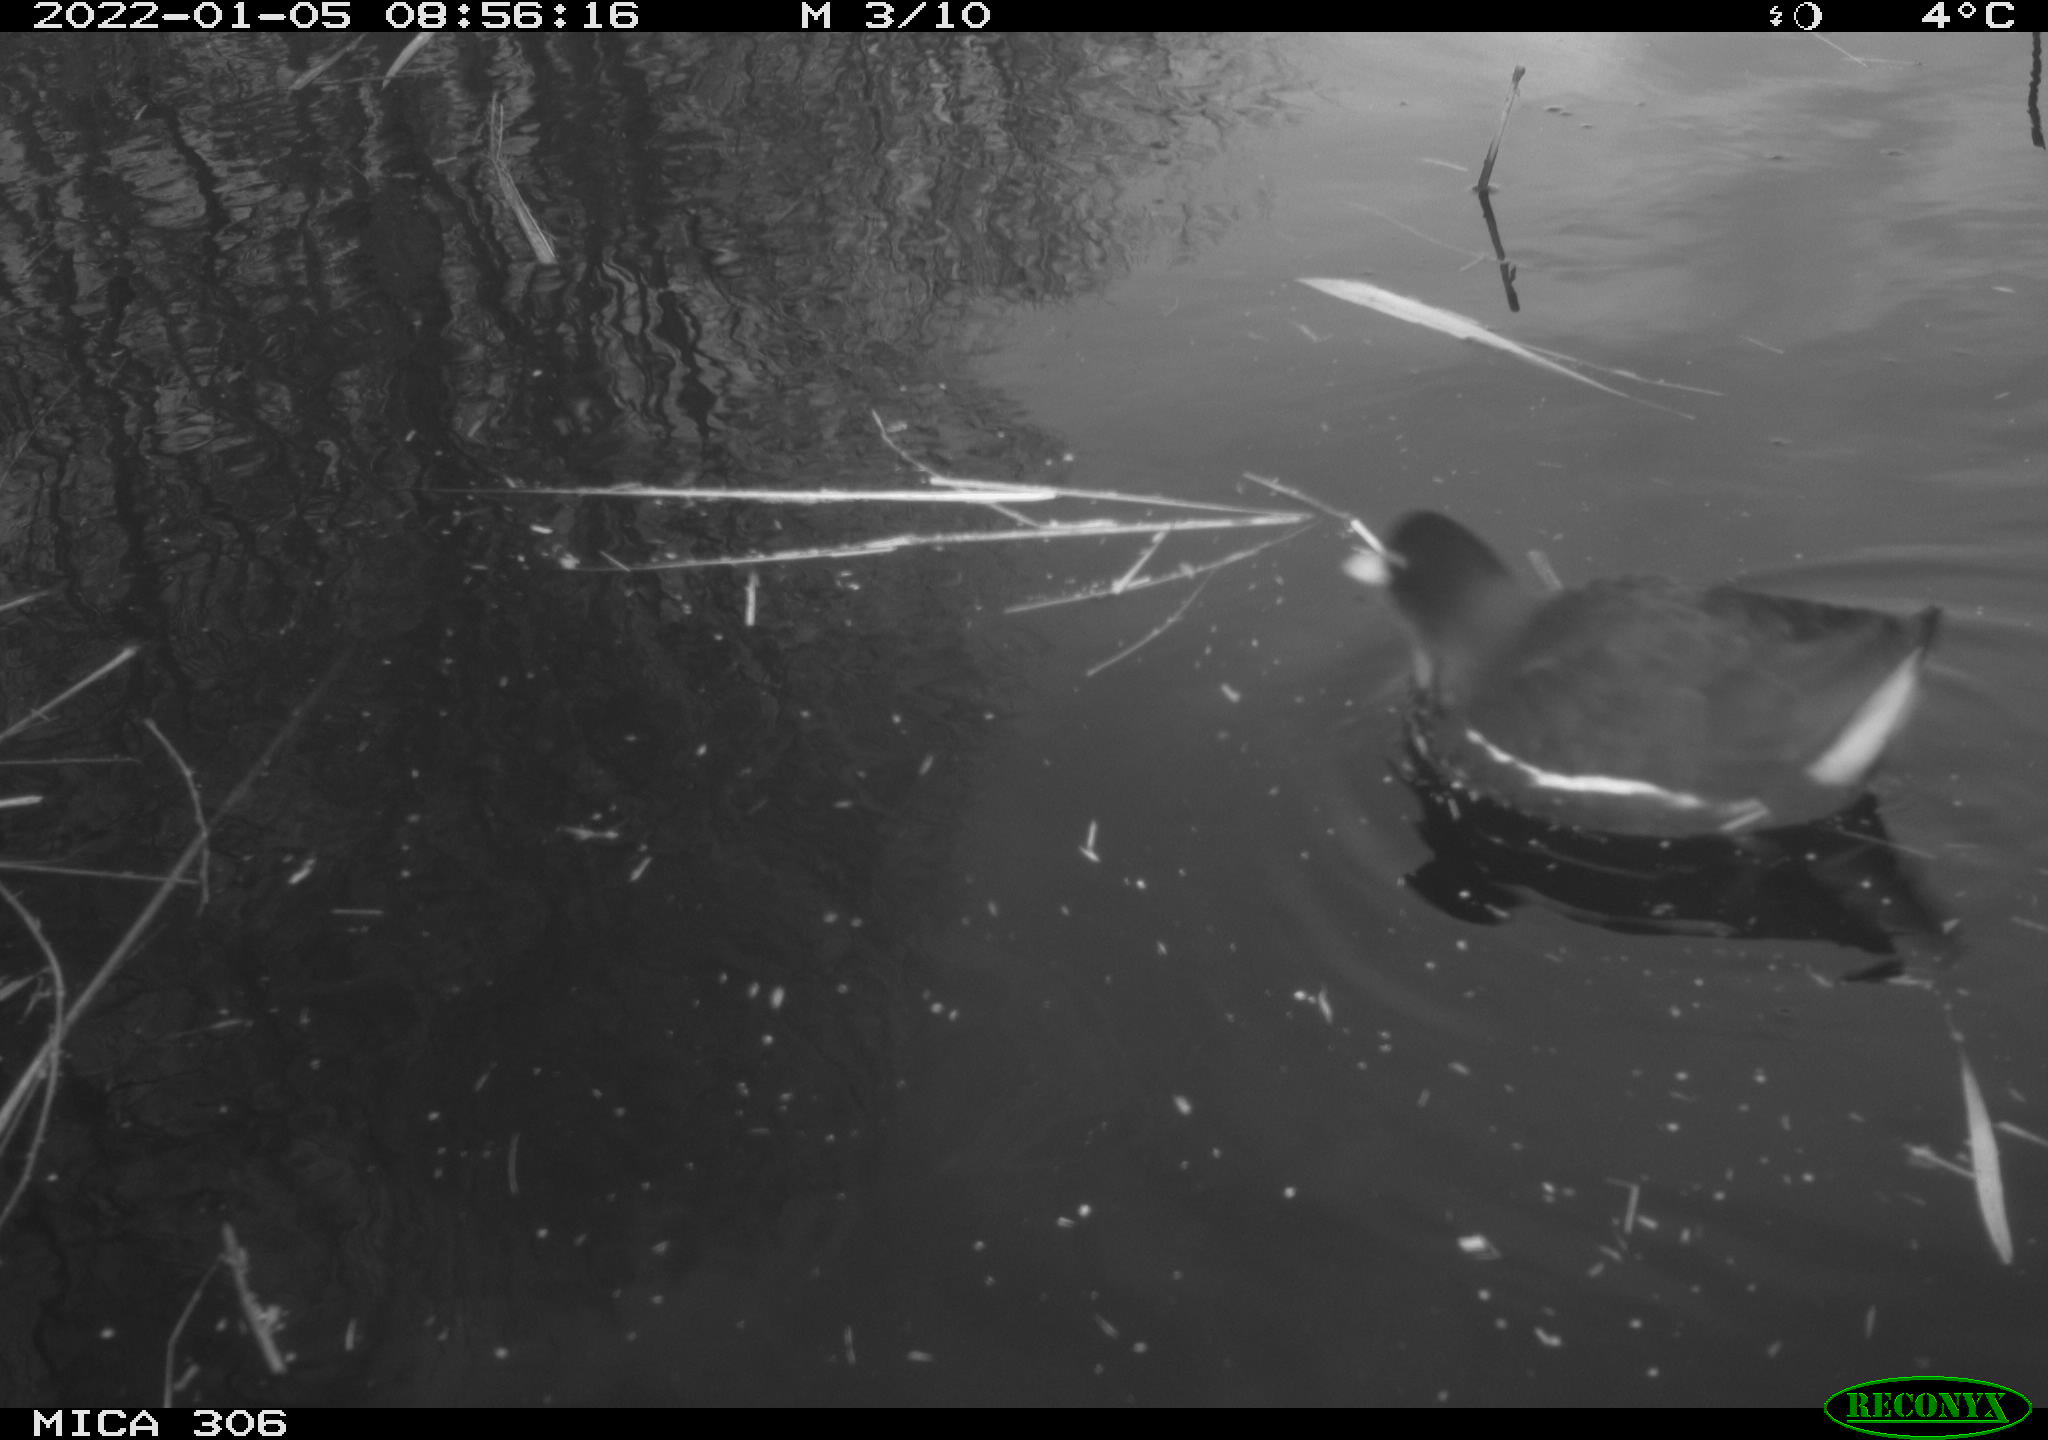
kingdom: Animalia
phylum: Chordata
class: Aves
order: Gruiformes
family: Rallidae
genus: Gallinula
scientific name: Gallinula chloropus
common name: Common moorhen
